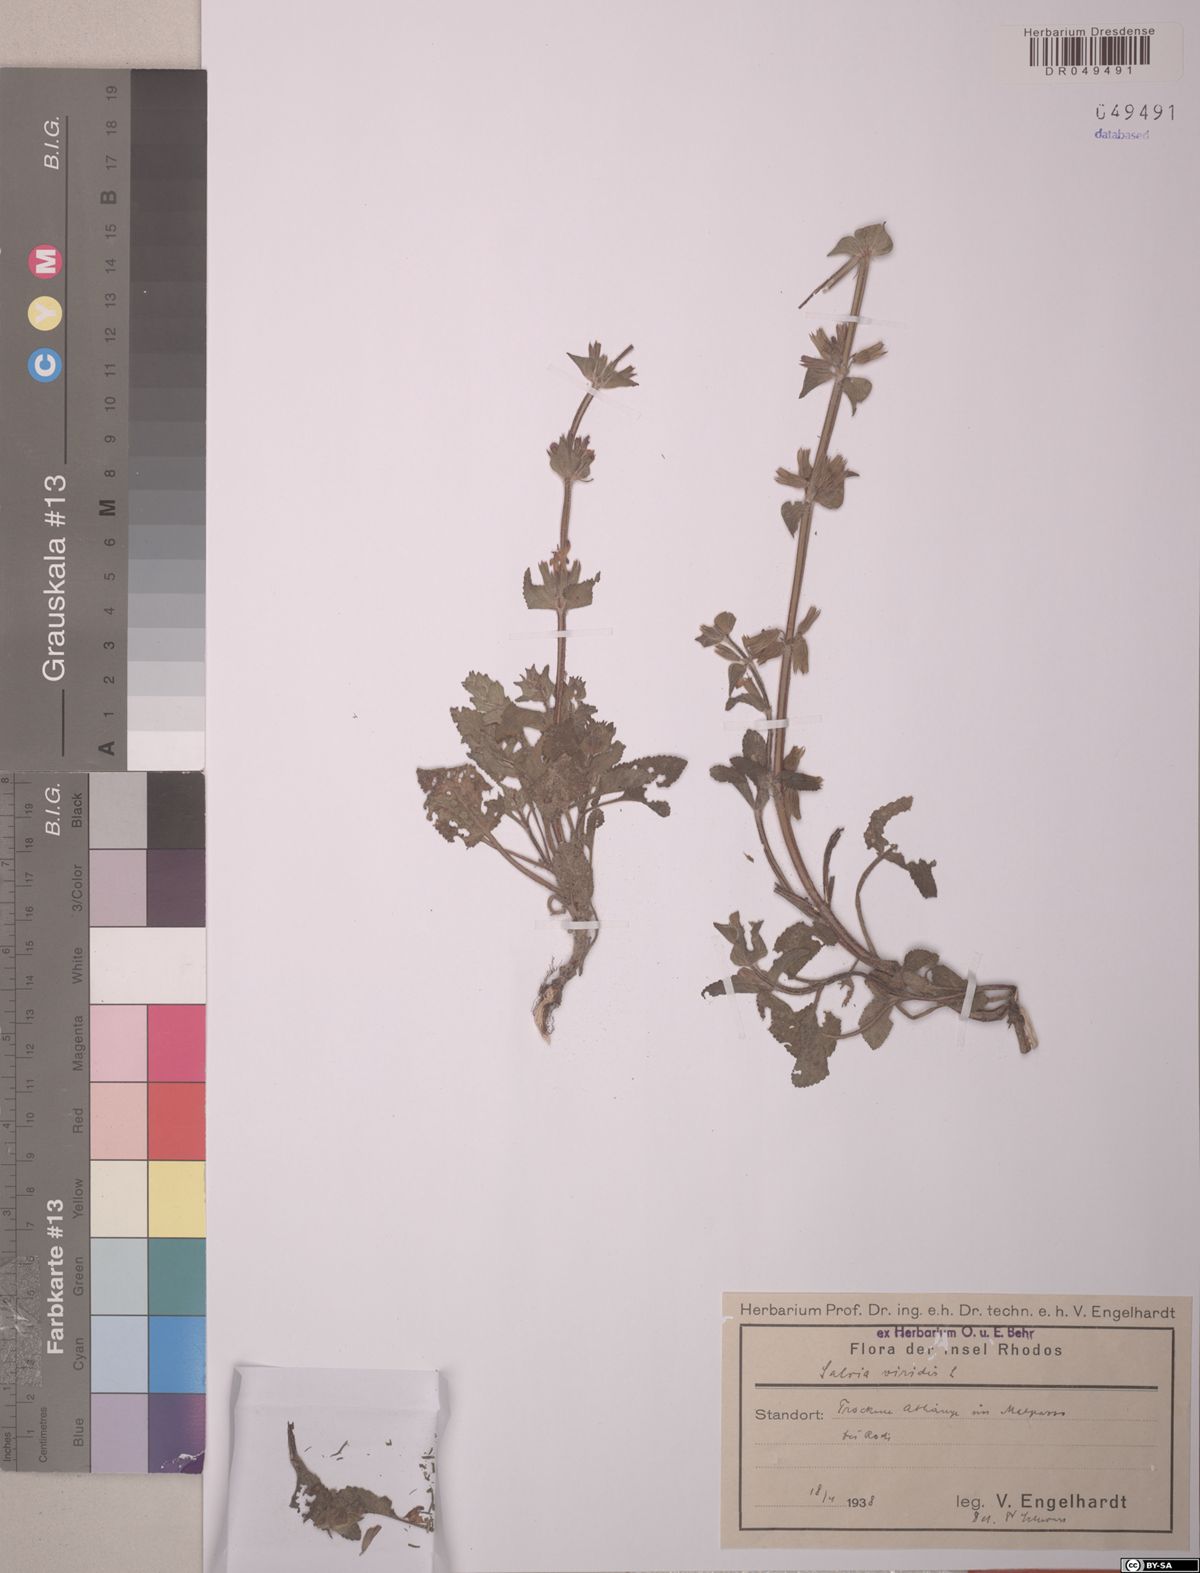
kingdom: Plantae
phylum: Tracheophyta
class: Magnoliopsida
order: Lamiales
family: Lamiaceae
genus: Salvia
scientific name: Salvia viridis
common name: Annual clary
